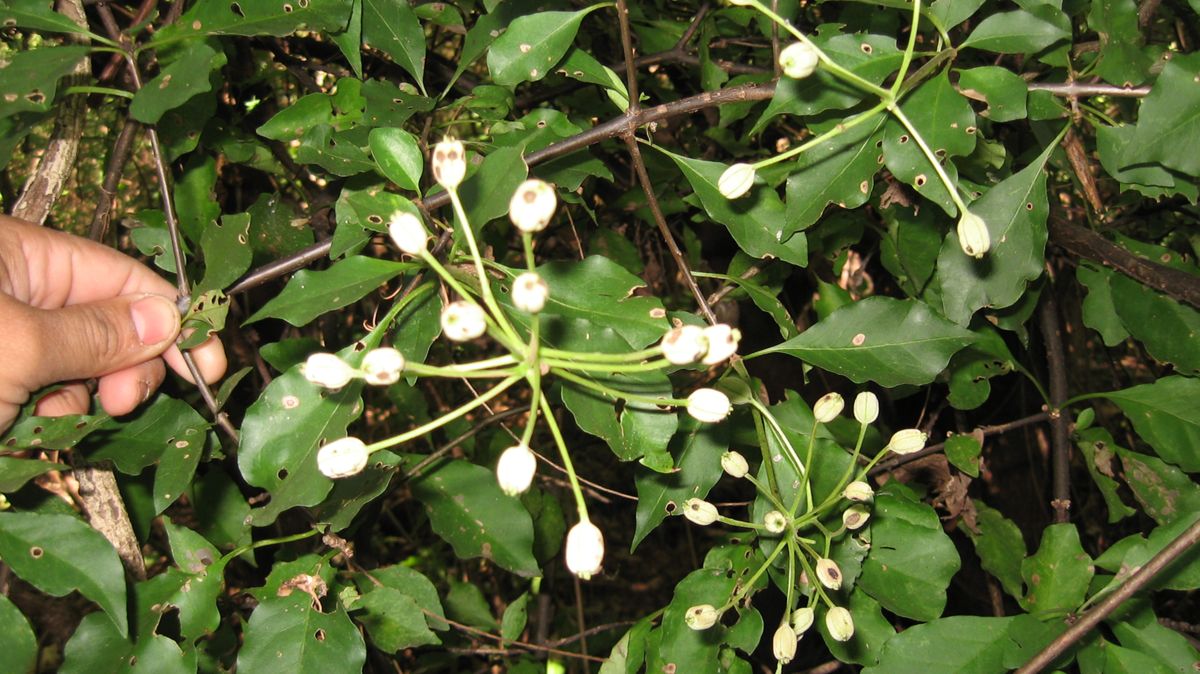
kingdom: Plantae
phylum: Tracheophyta
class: Magnoliopsida
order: Caryophyllales
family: Nyctaginaceae
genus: Pisonia
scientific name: Pisonia macranthocarpa
